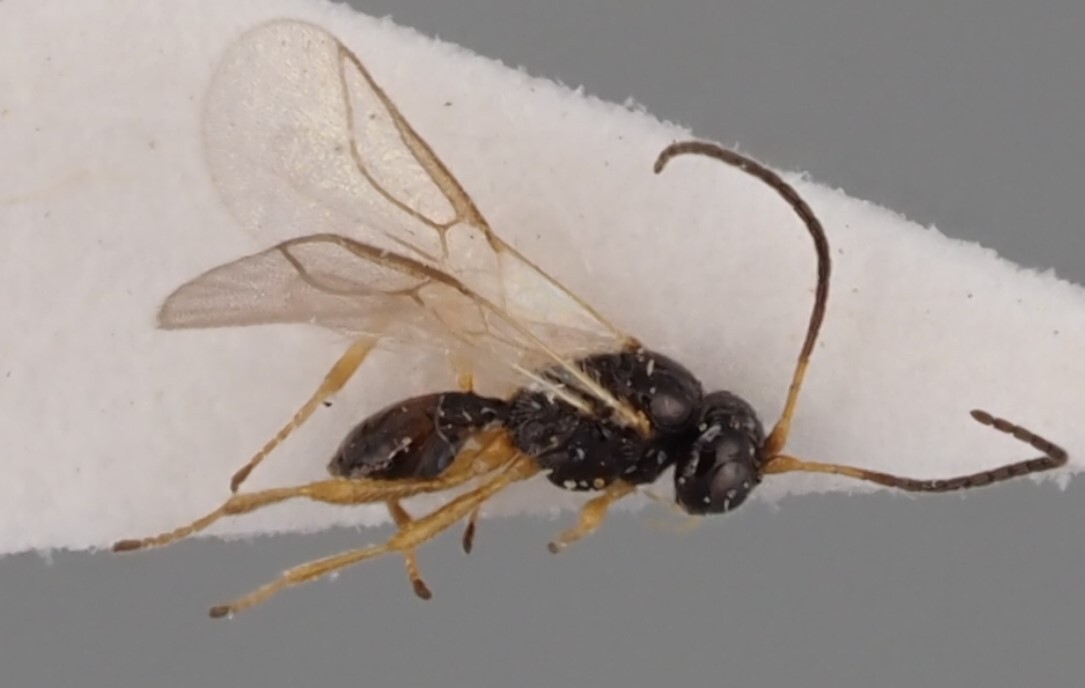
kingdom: Animalia
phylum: Arthropoda
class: Insecta
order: Hymenoptera
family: Braconidae
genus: Chorebus
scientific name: Chorebus albipes
